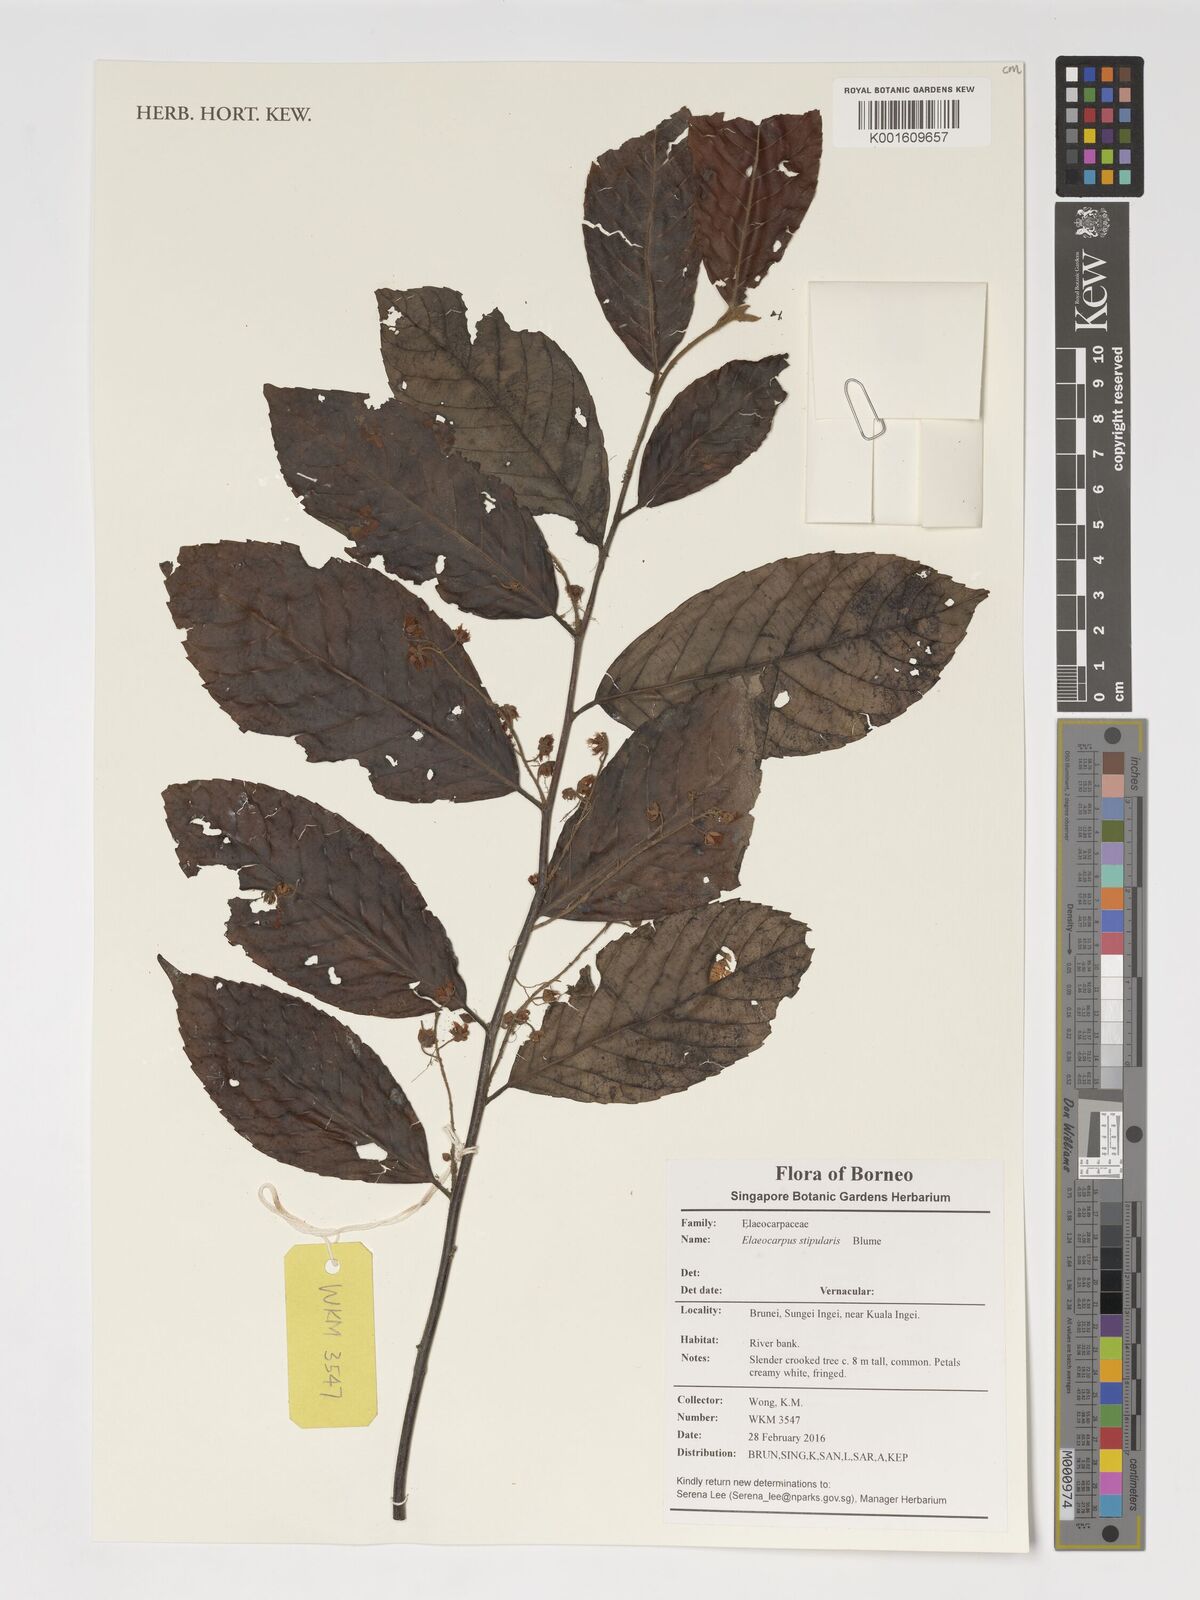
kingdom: Plantae
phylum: Tracheophyta
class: Magnoliopsida
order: Oxalidales
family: Elaeocarpaceae
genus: Elaeocarpus
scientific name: Elaeocarpus stipularis
